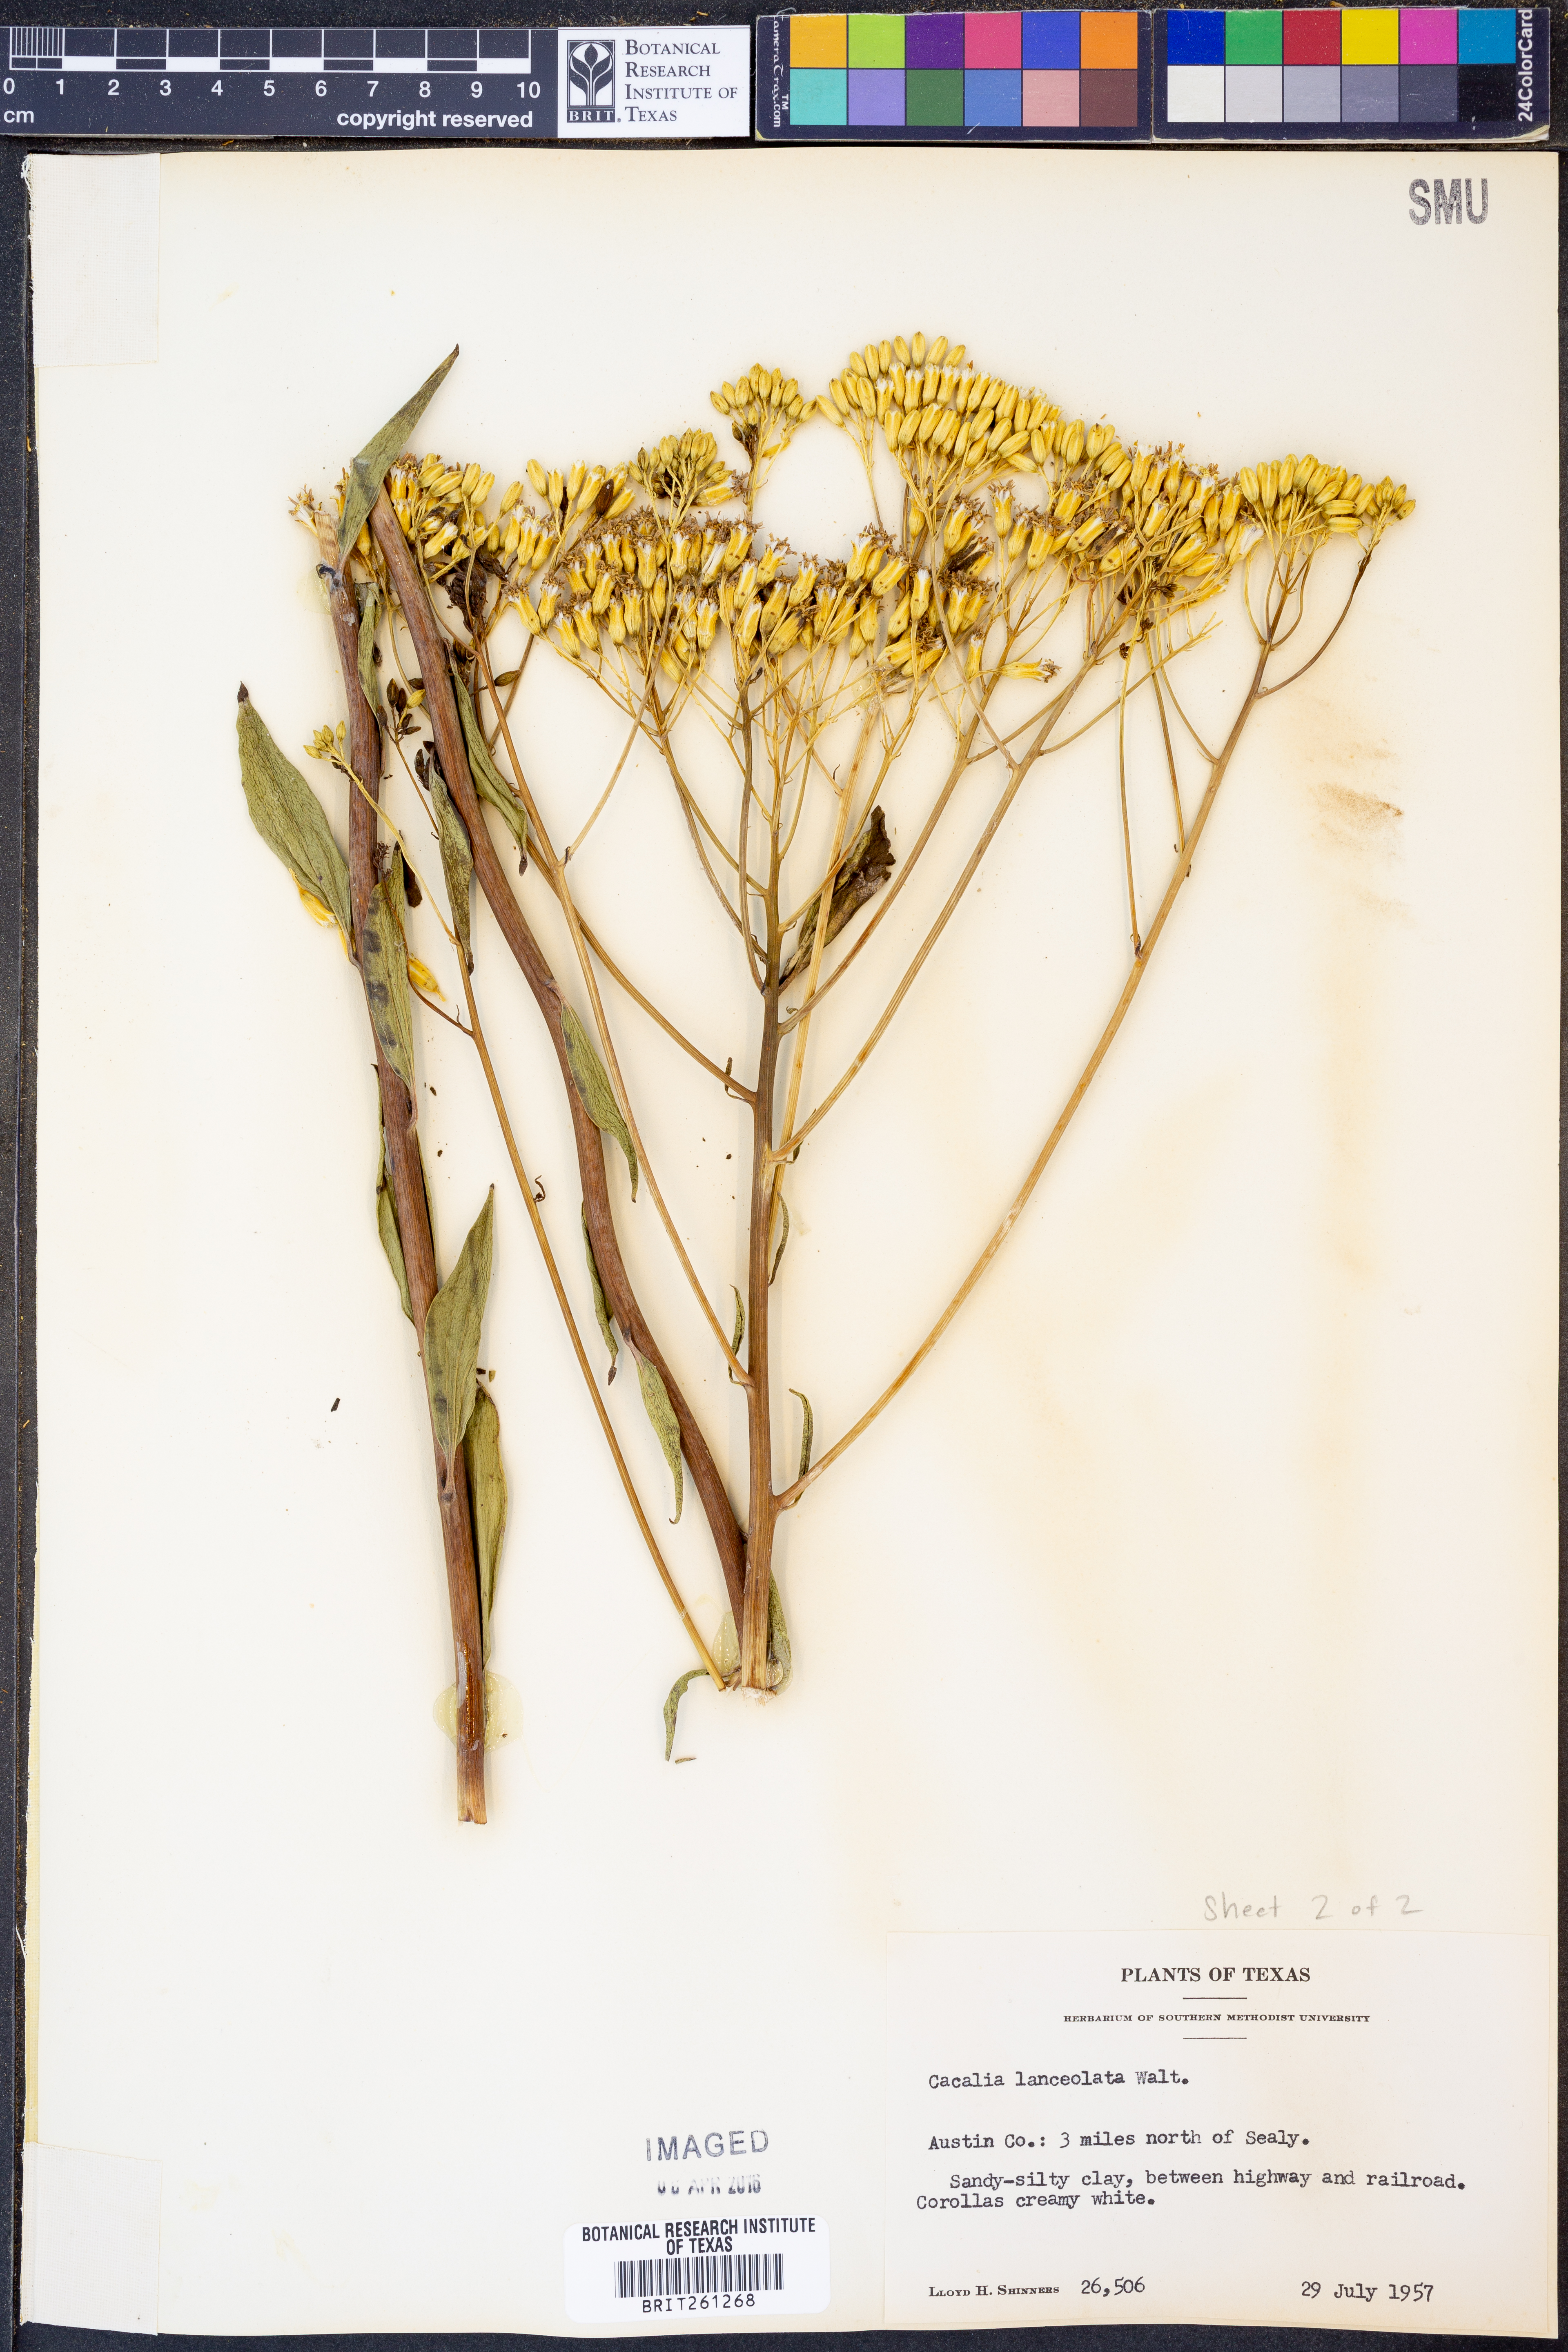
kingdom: Plantae
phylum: Tracheophyta
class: Magnoliopsida
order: Asterales
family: Asteraceae
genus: Arnoglossum
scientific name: Arnoglossum ovatum
